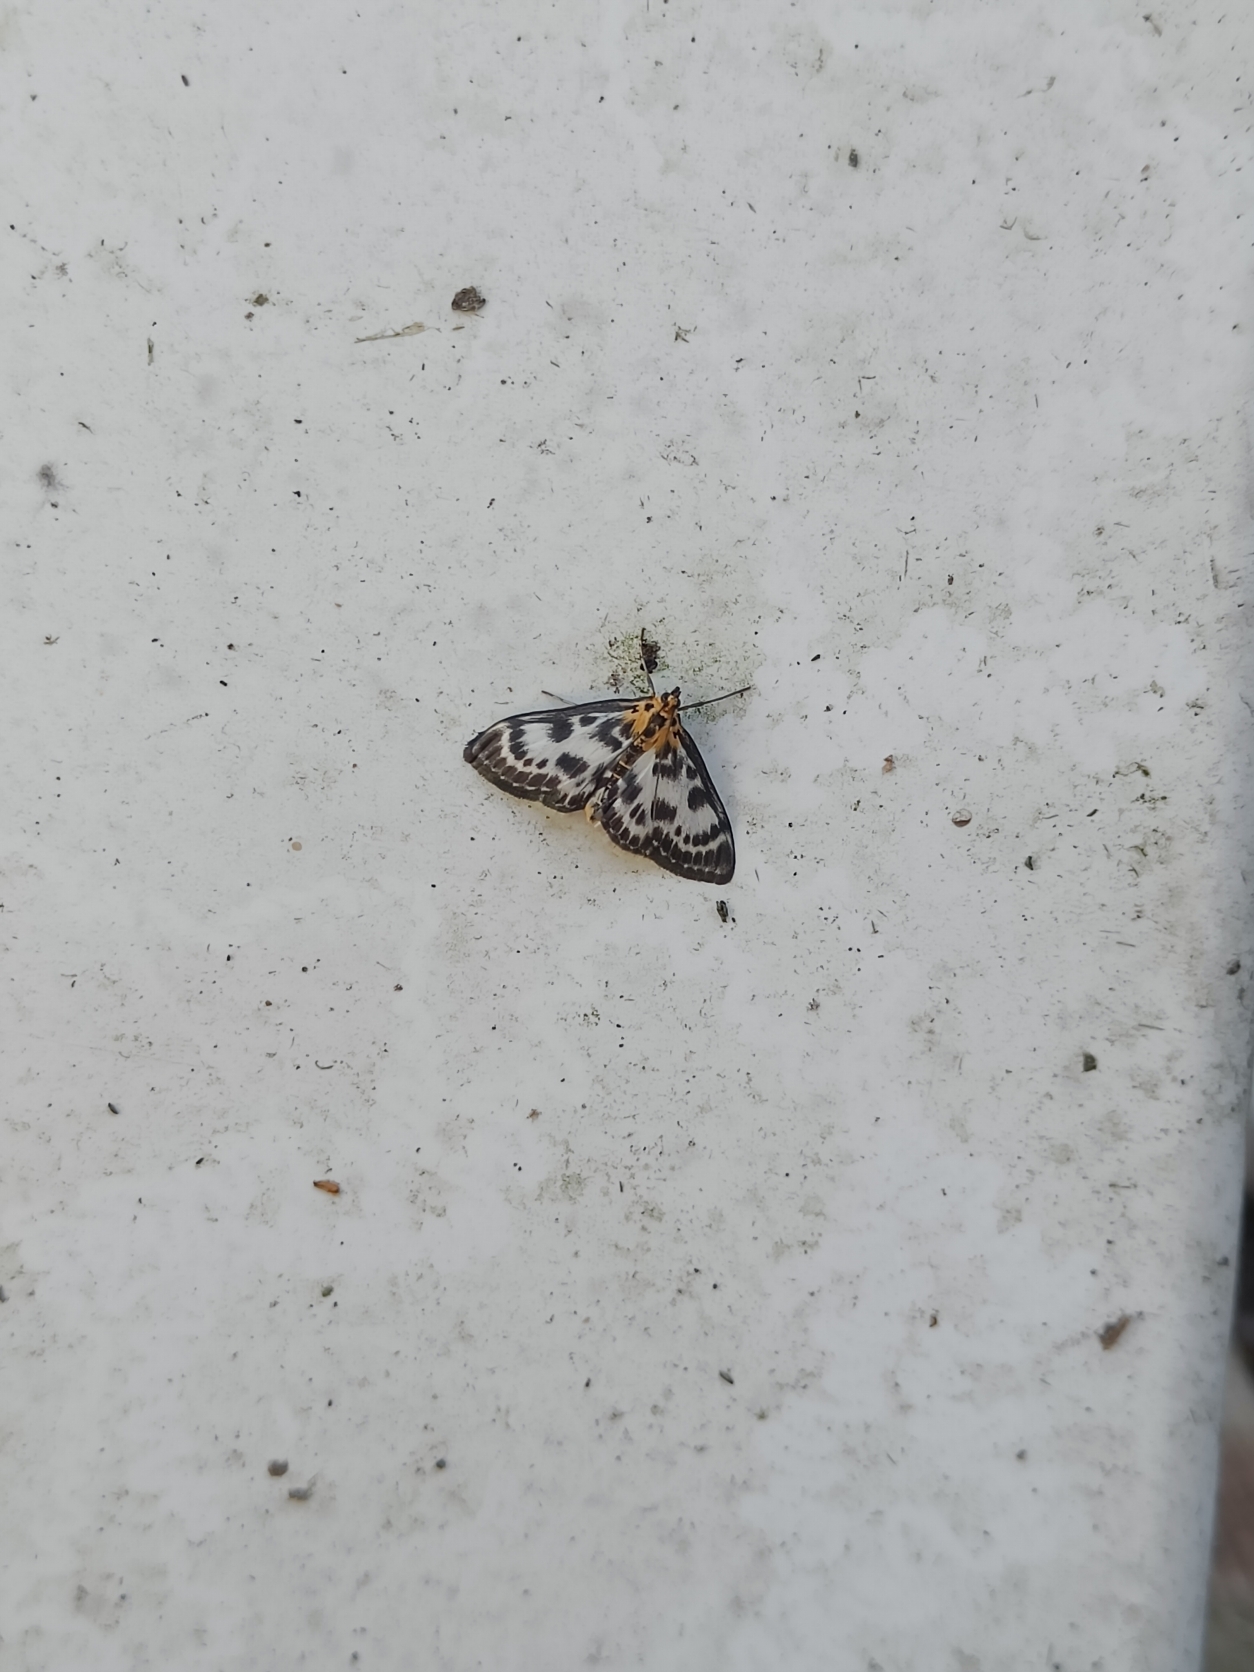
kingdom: Animalia
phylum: Arthropoda
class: Insecta
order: Lepidoptera
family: Crambidae
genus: Anania
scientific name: Anania hortulata
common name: Nældehalvmøl
